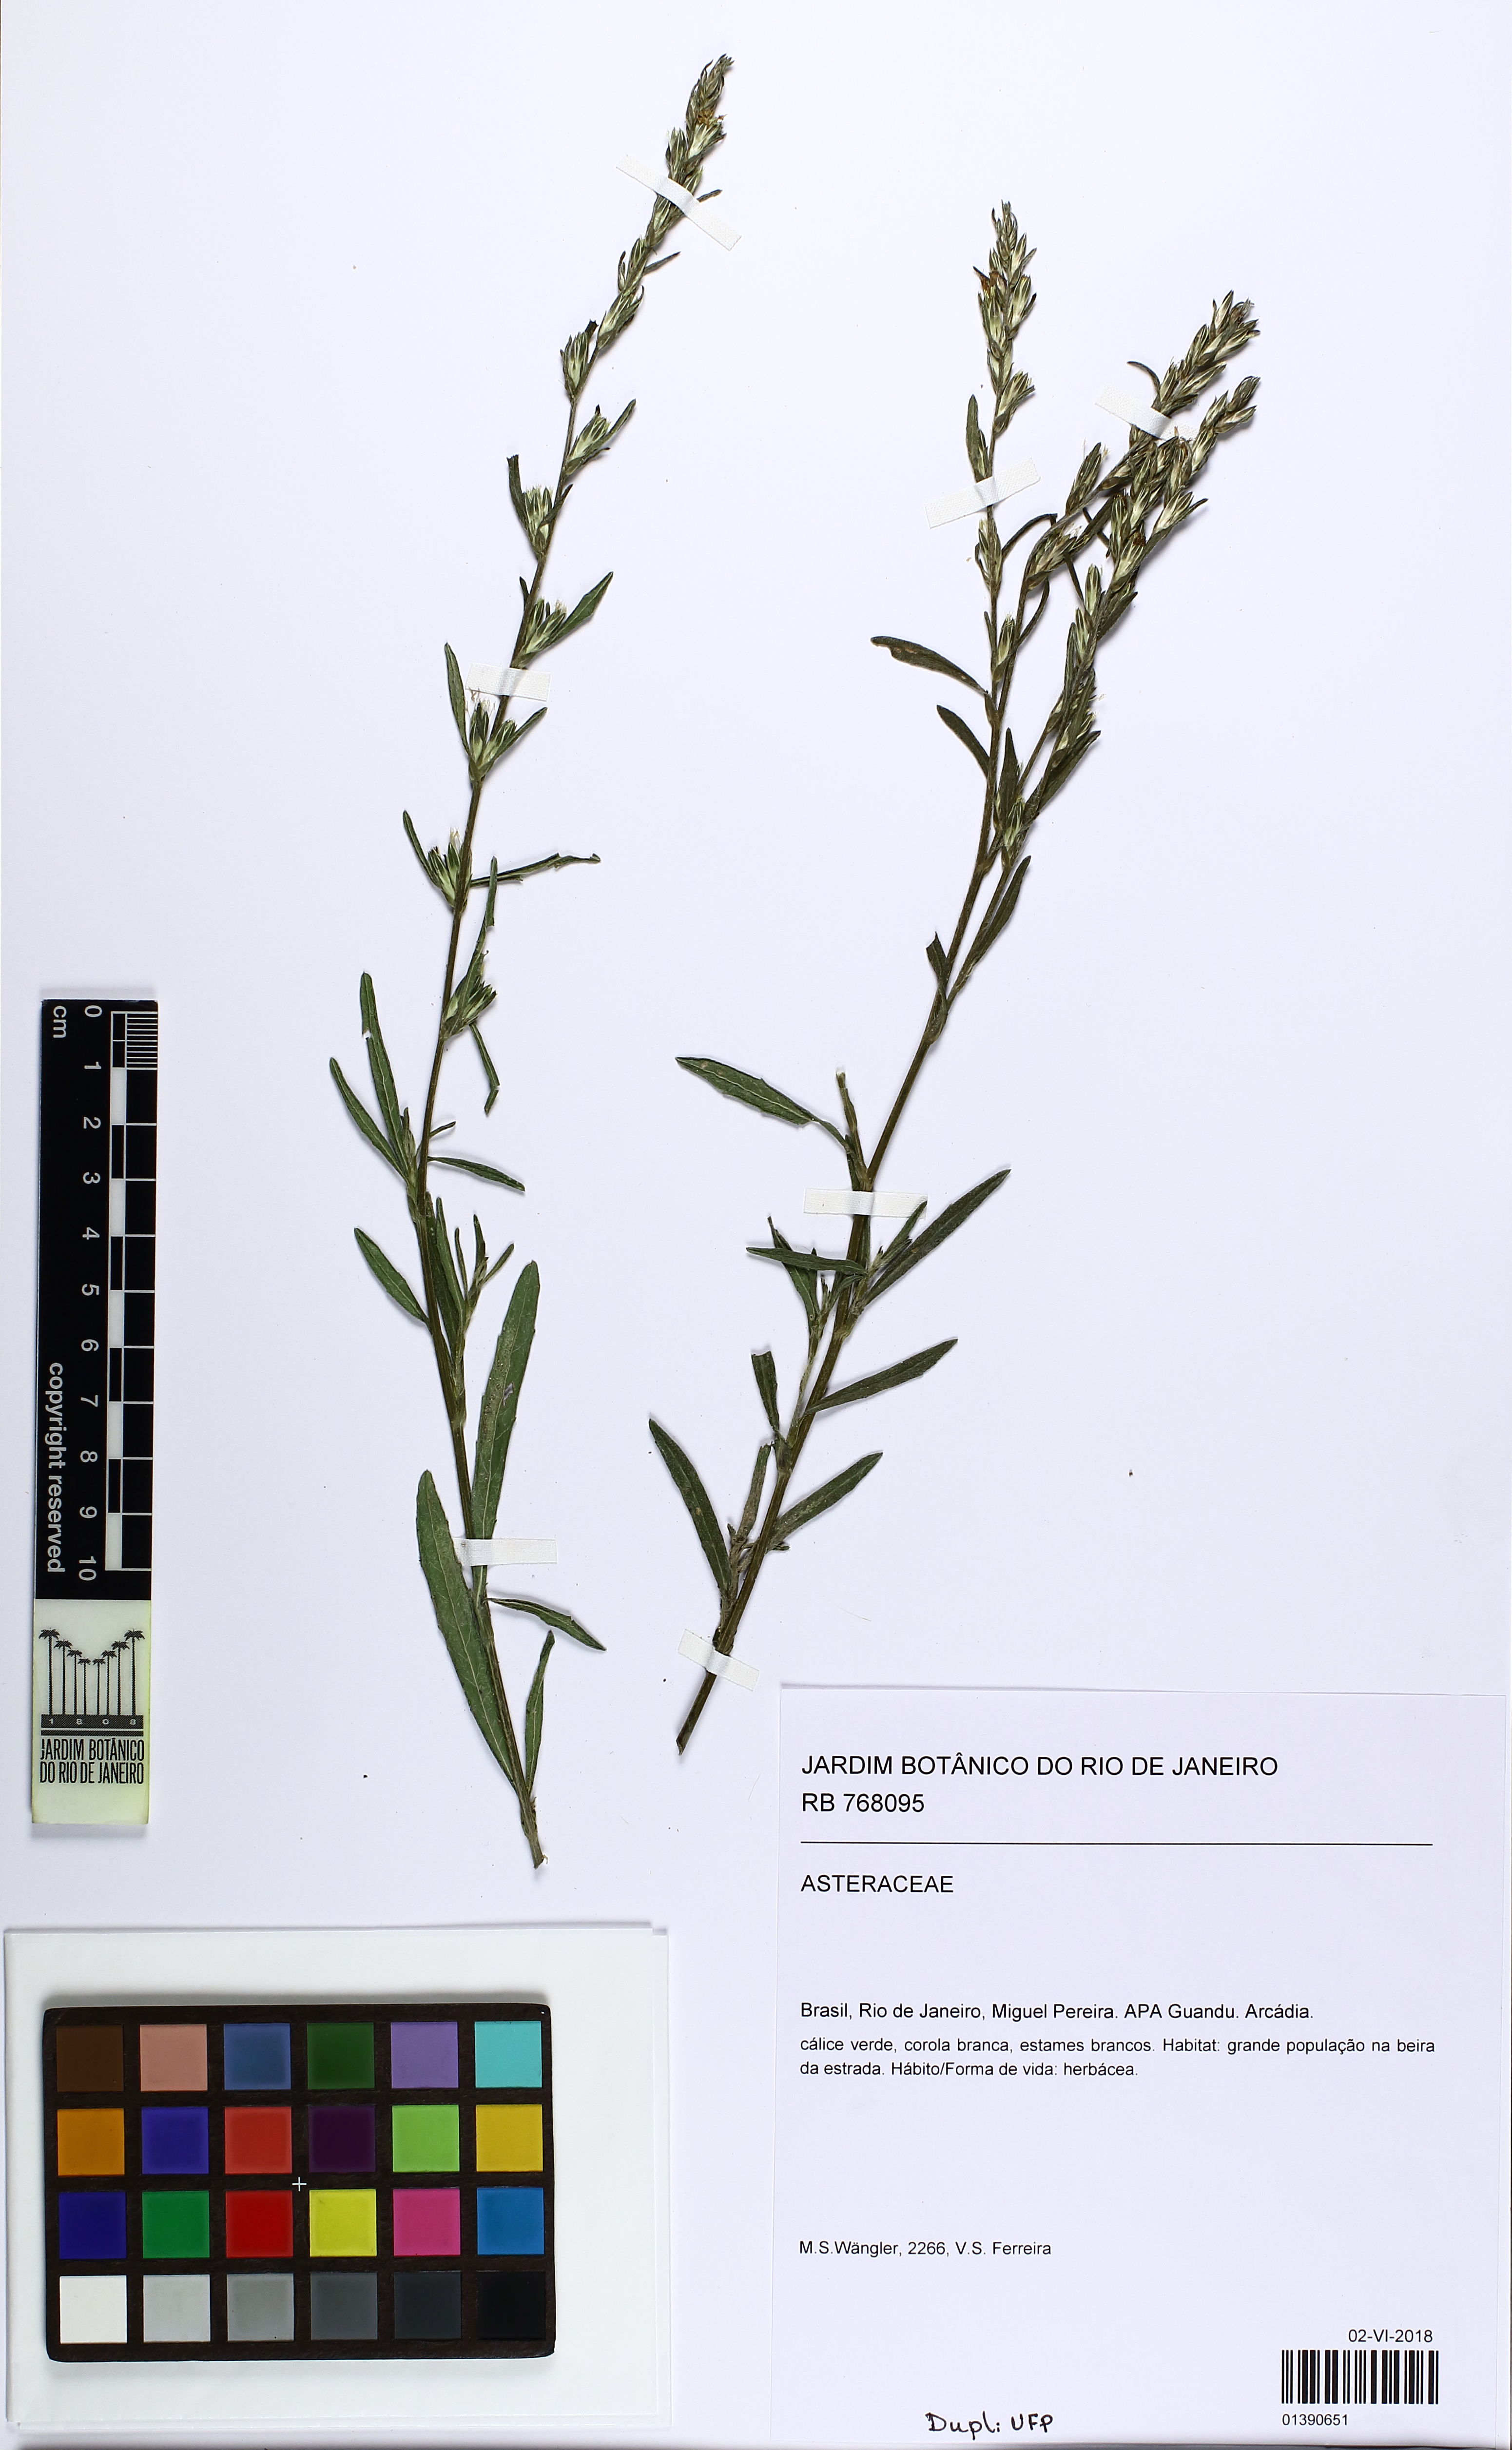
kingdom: Plantae
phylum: Tracheophyta
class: Magnoliopsida
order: Asterales
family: Asteraceae
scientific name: Asteraceae
